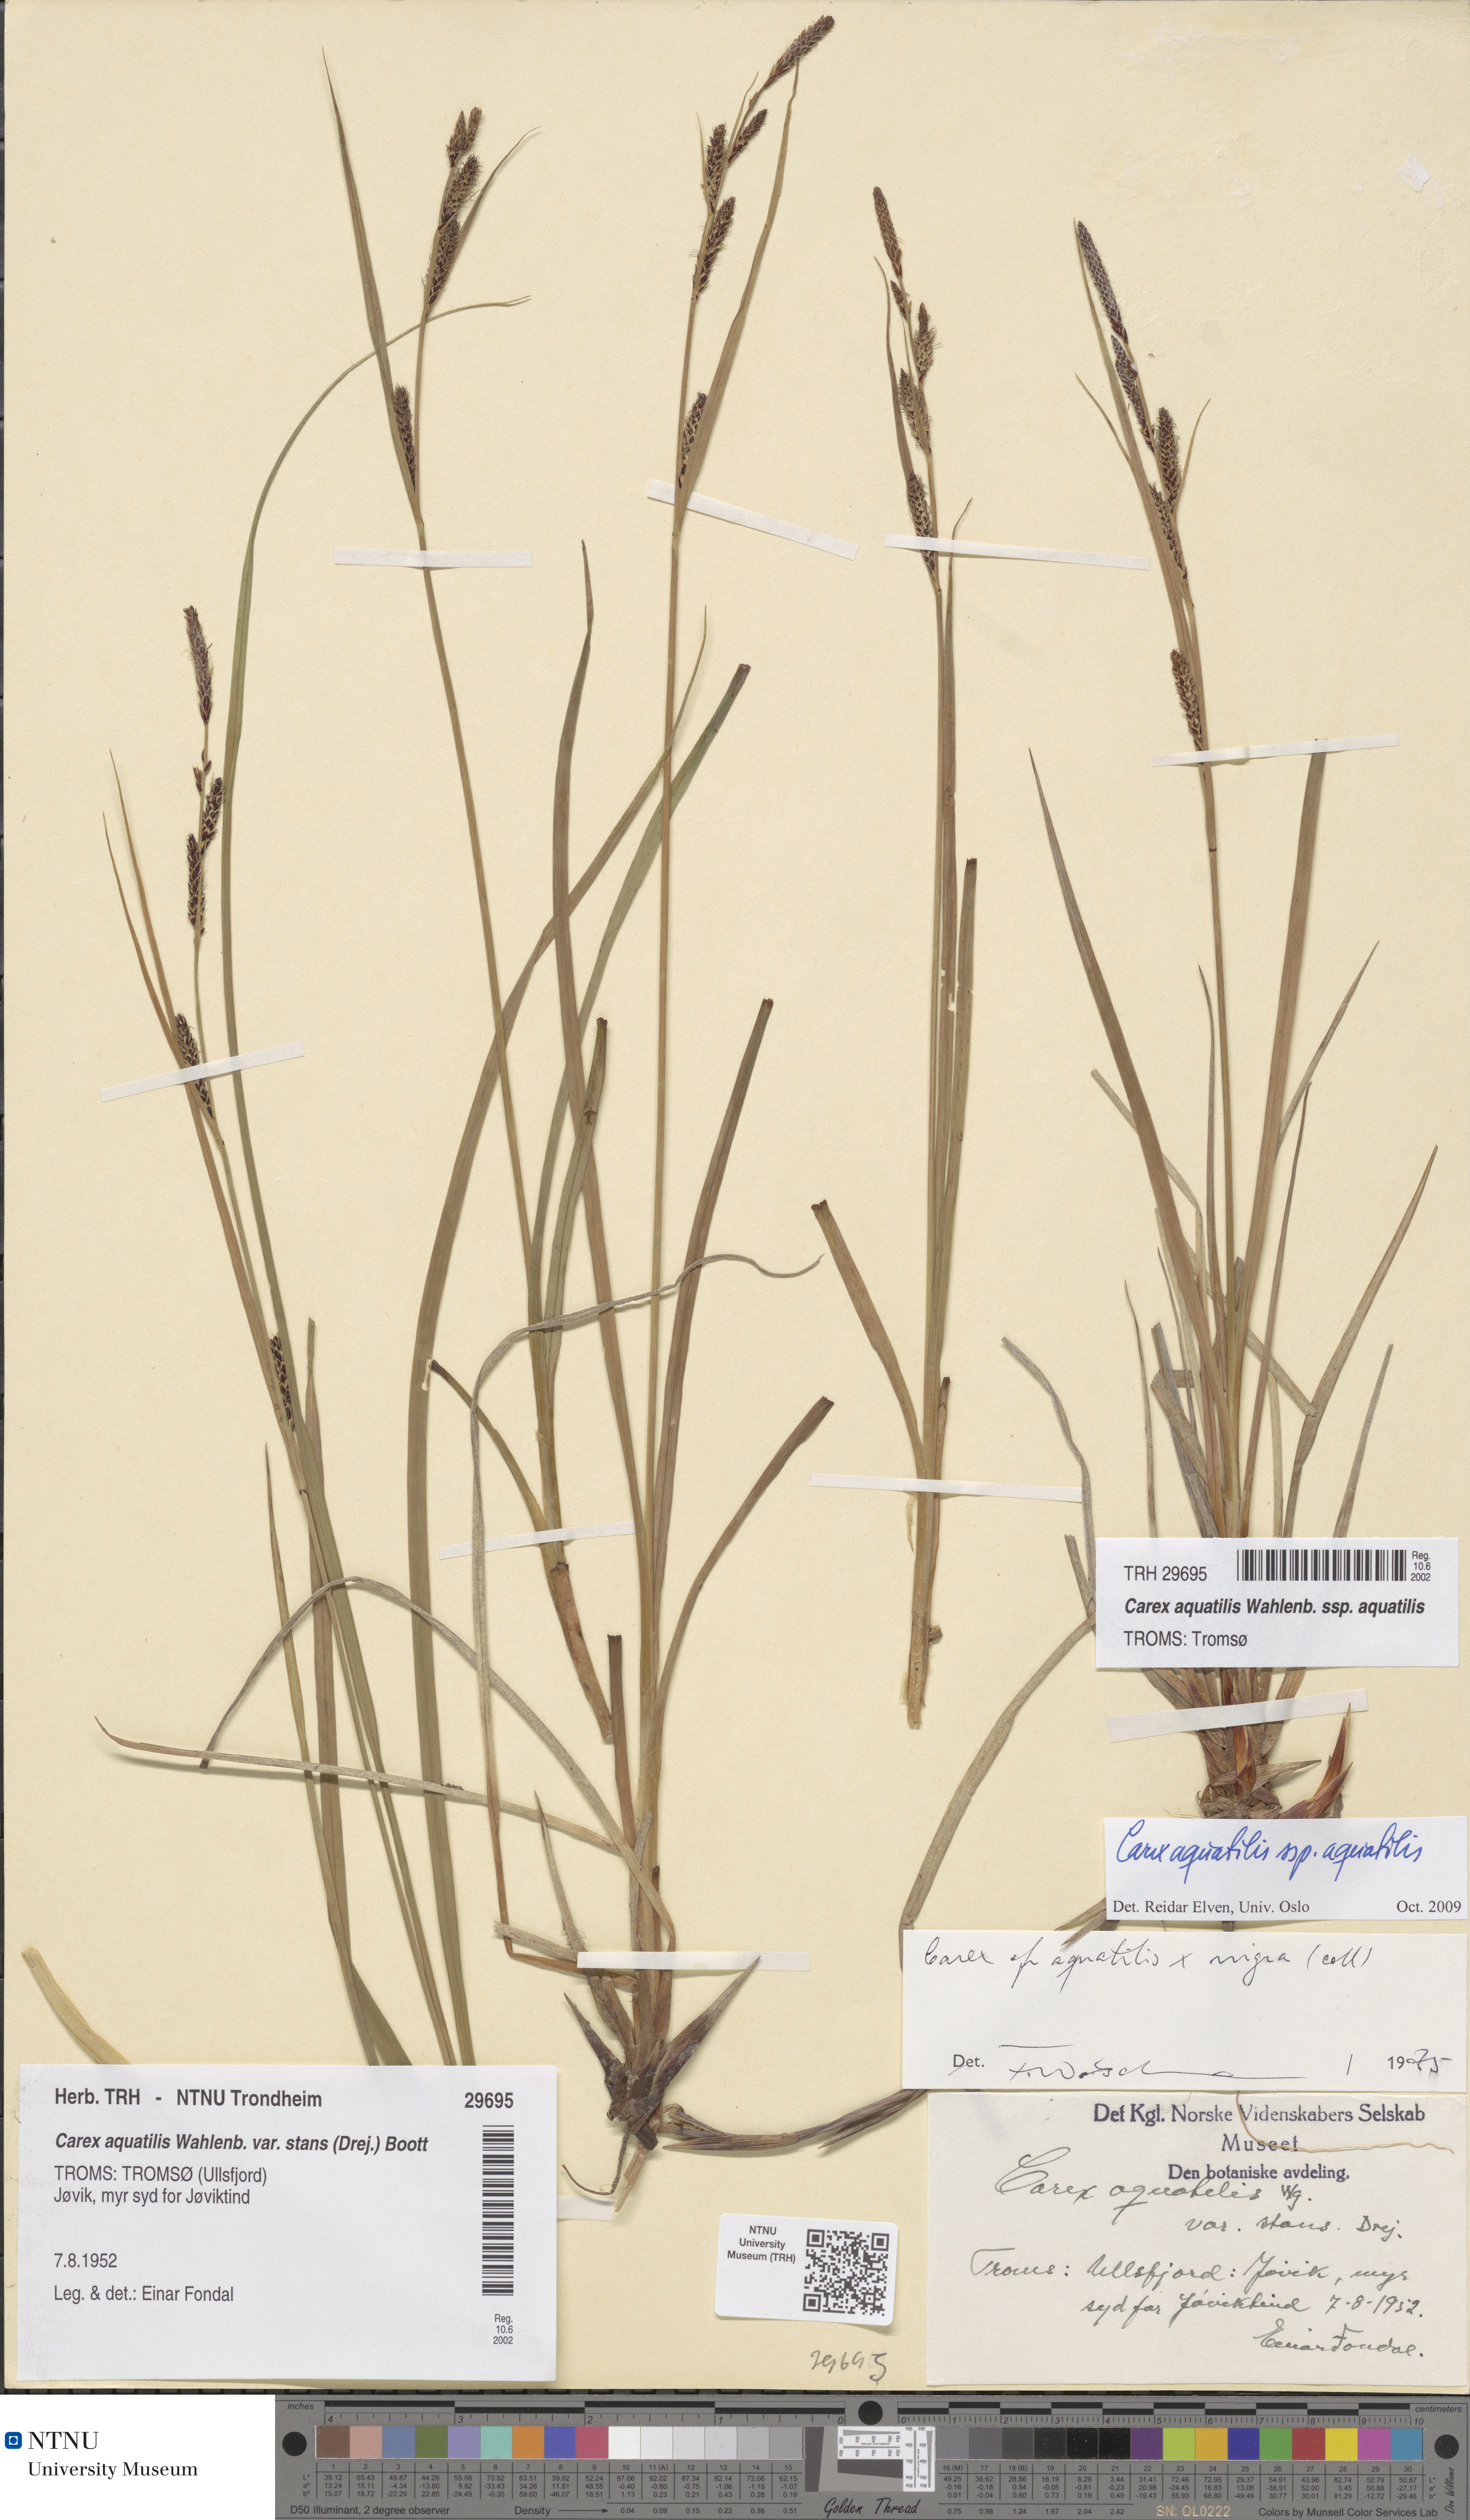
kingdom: Plantae
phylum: Tracheophyta
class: Liliopsida
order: Poales
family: Cyperaceae
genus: Carex
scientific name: Carex aquatilis
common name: Water sedge
